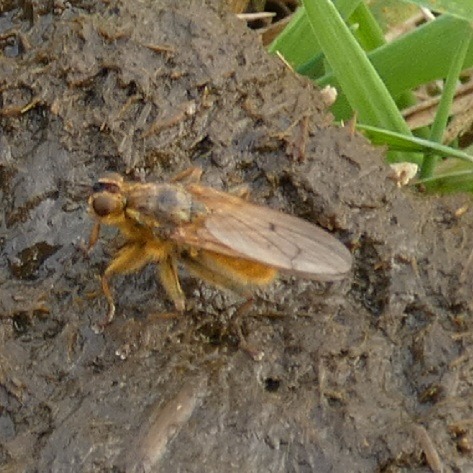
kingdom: Animalia
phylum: Arthropoda
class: Insecta
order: Diptera
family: Scathophagidae
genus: Scathophaga
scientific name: Scathophaga stercoraria
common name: Almindelig gødningsflue
